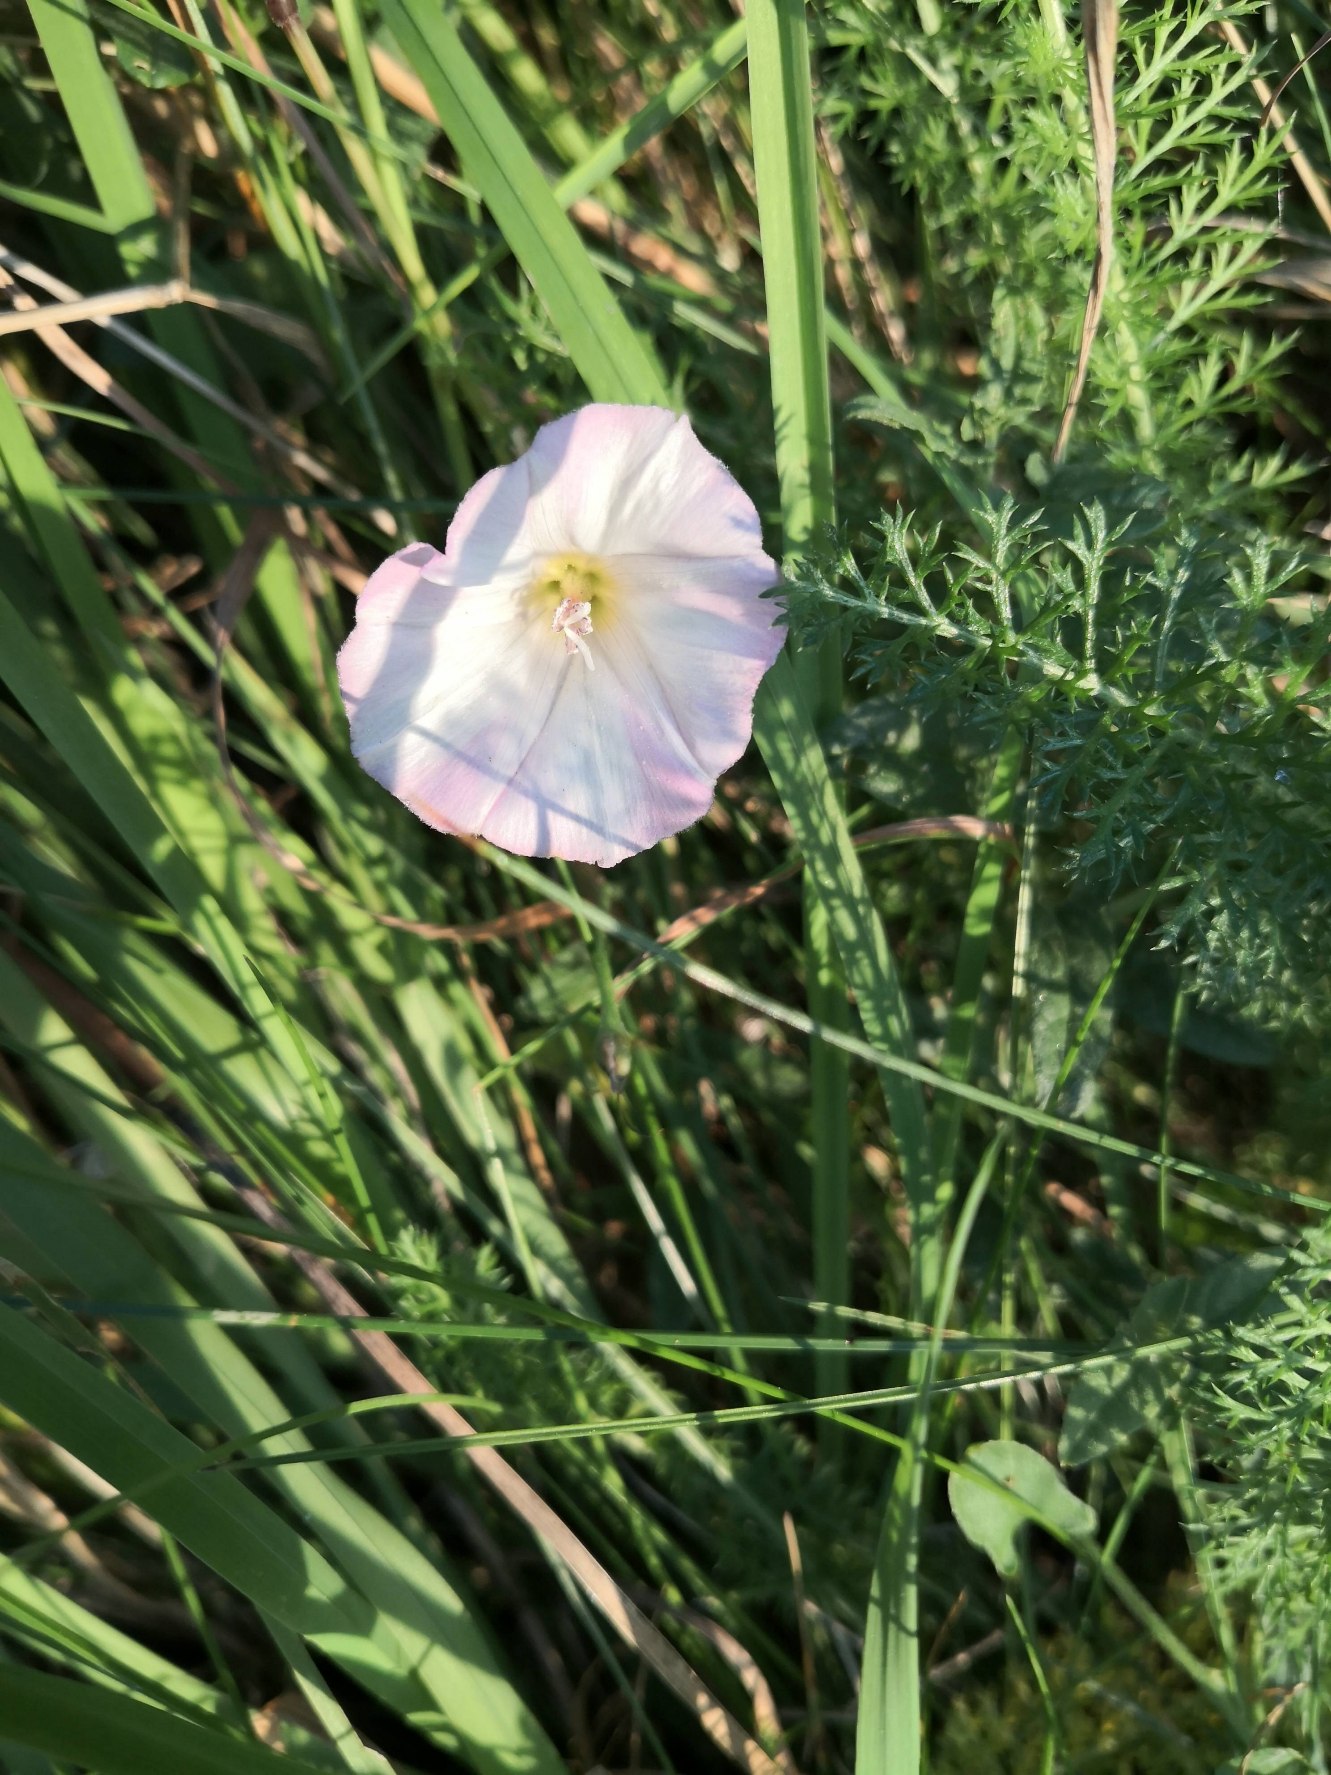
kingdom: Plantae
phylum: Tracheophyta
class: Magnoliopsida
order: Solanales
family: Convolvulaceae
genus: Convolvulus
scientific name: Convolvulus arvensis
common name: Ager-snerle
